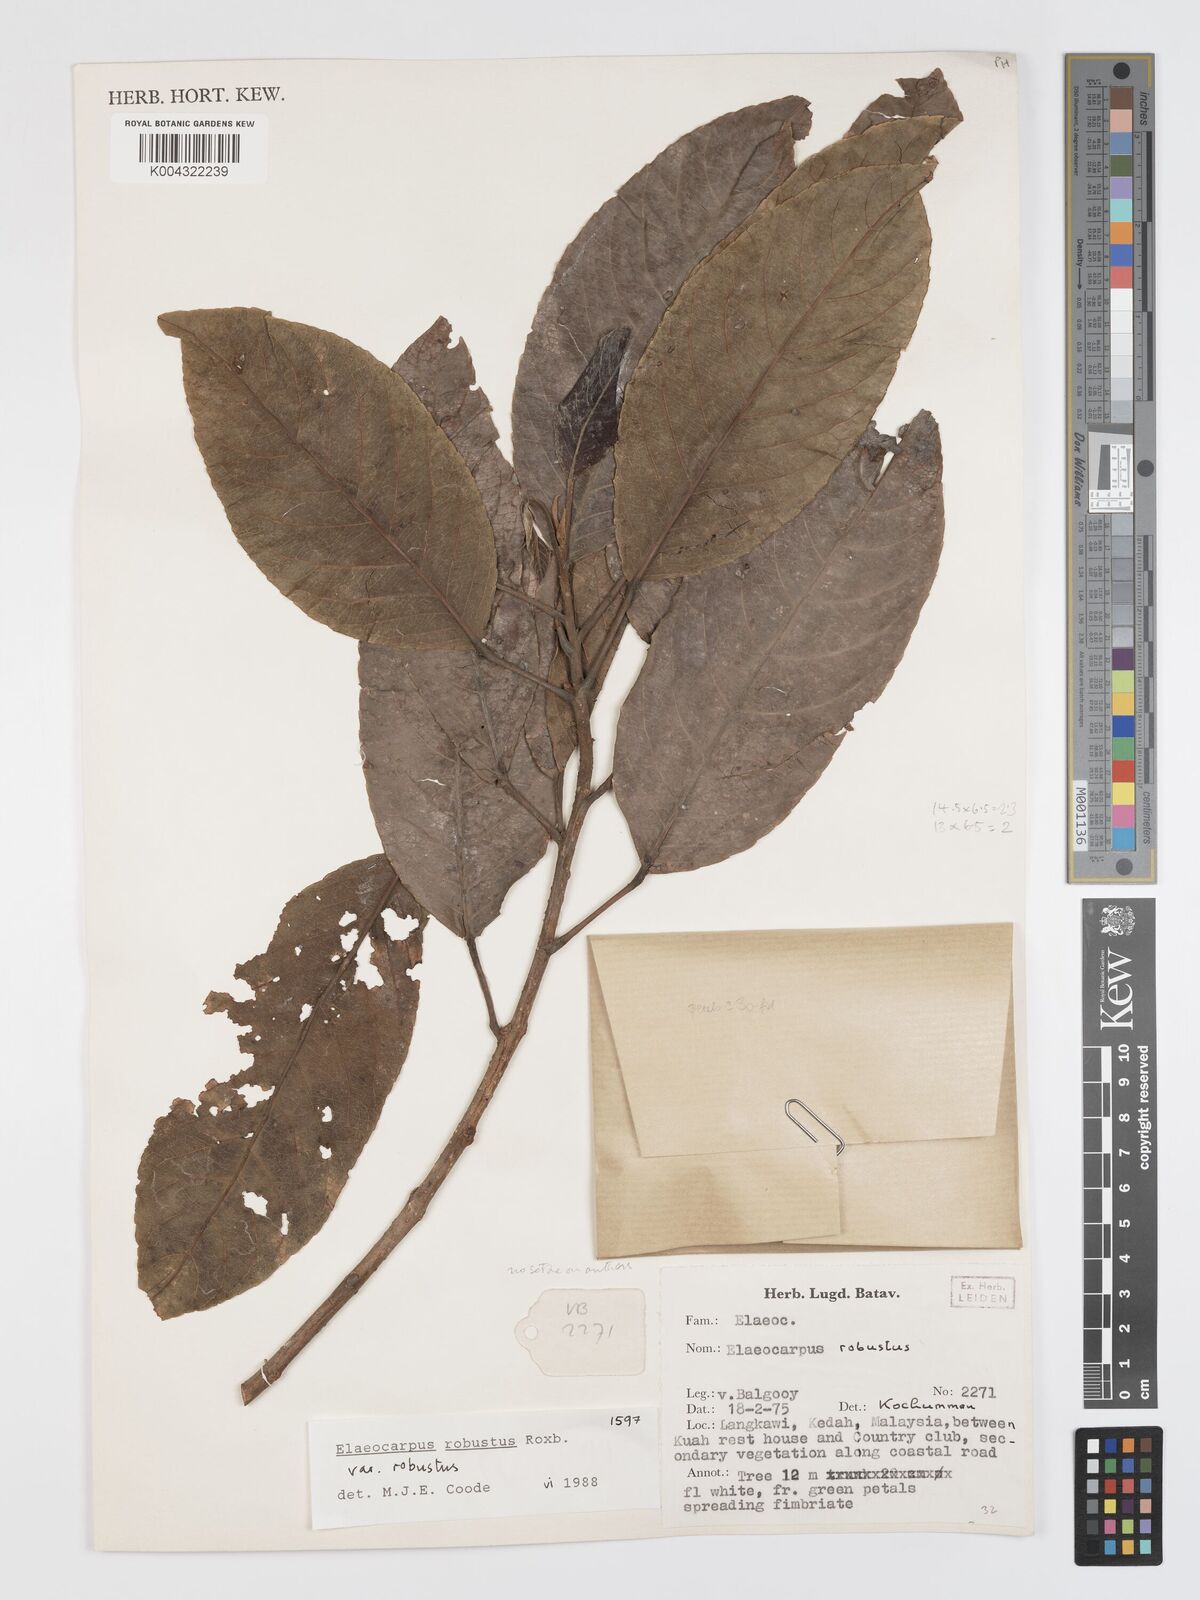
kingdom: Plantae
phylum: Tracheophyta
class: Magnoliopsida
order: Oxalidales
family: Elaeocarpaceae
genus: Elaeocarpus
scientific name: Elaeocarpus robustus
